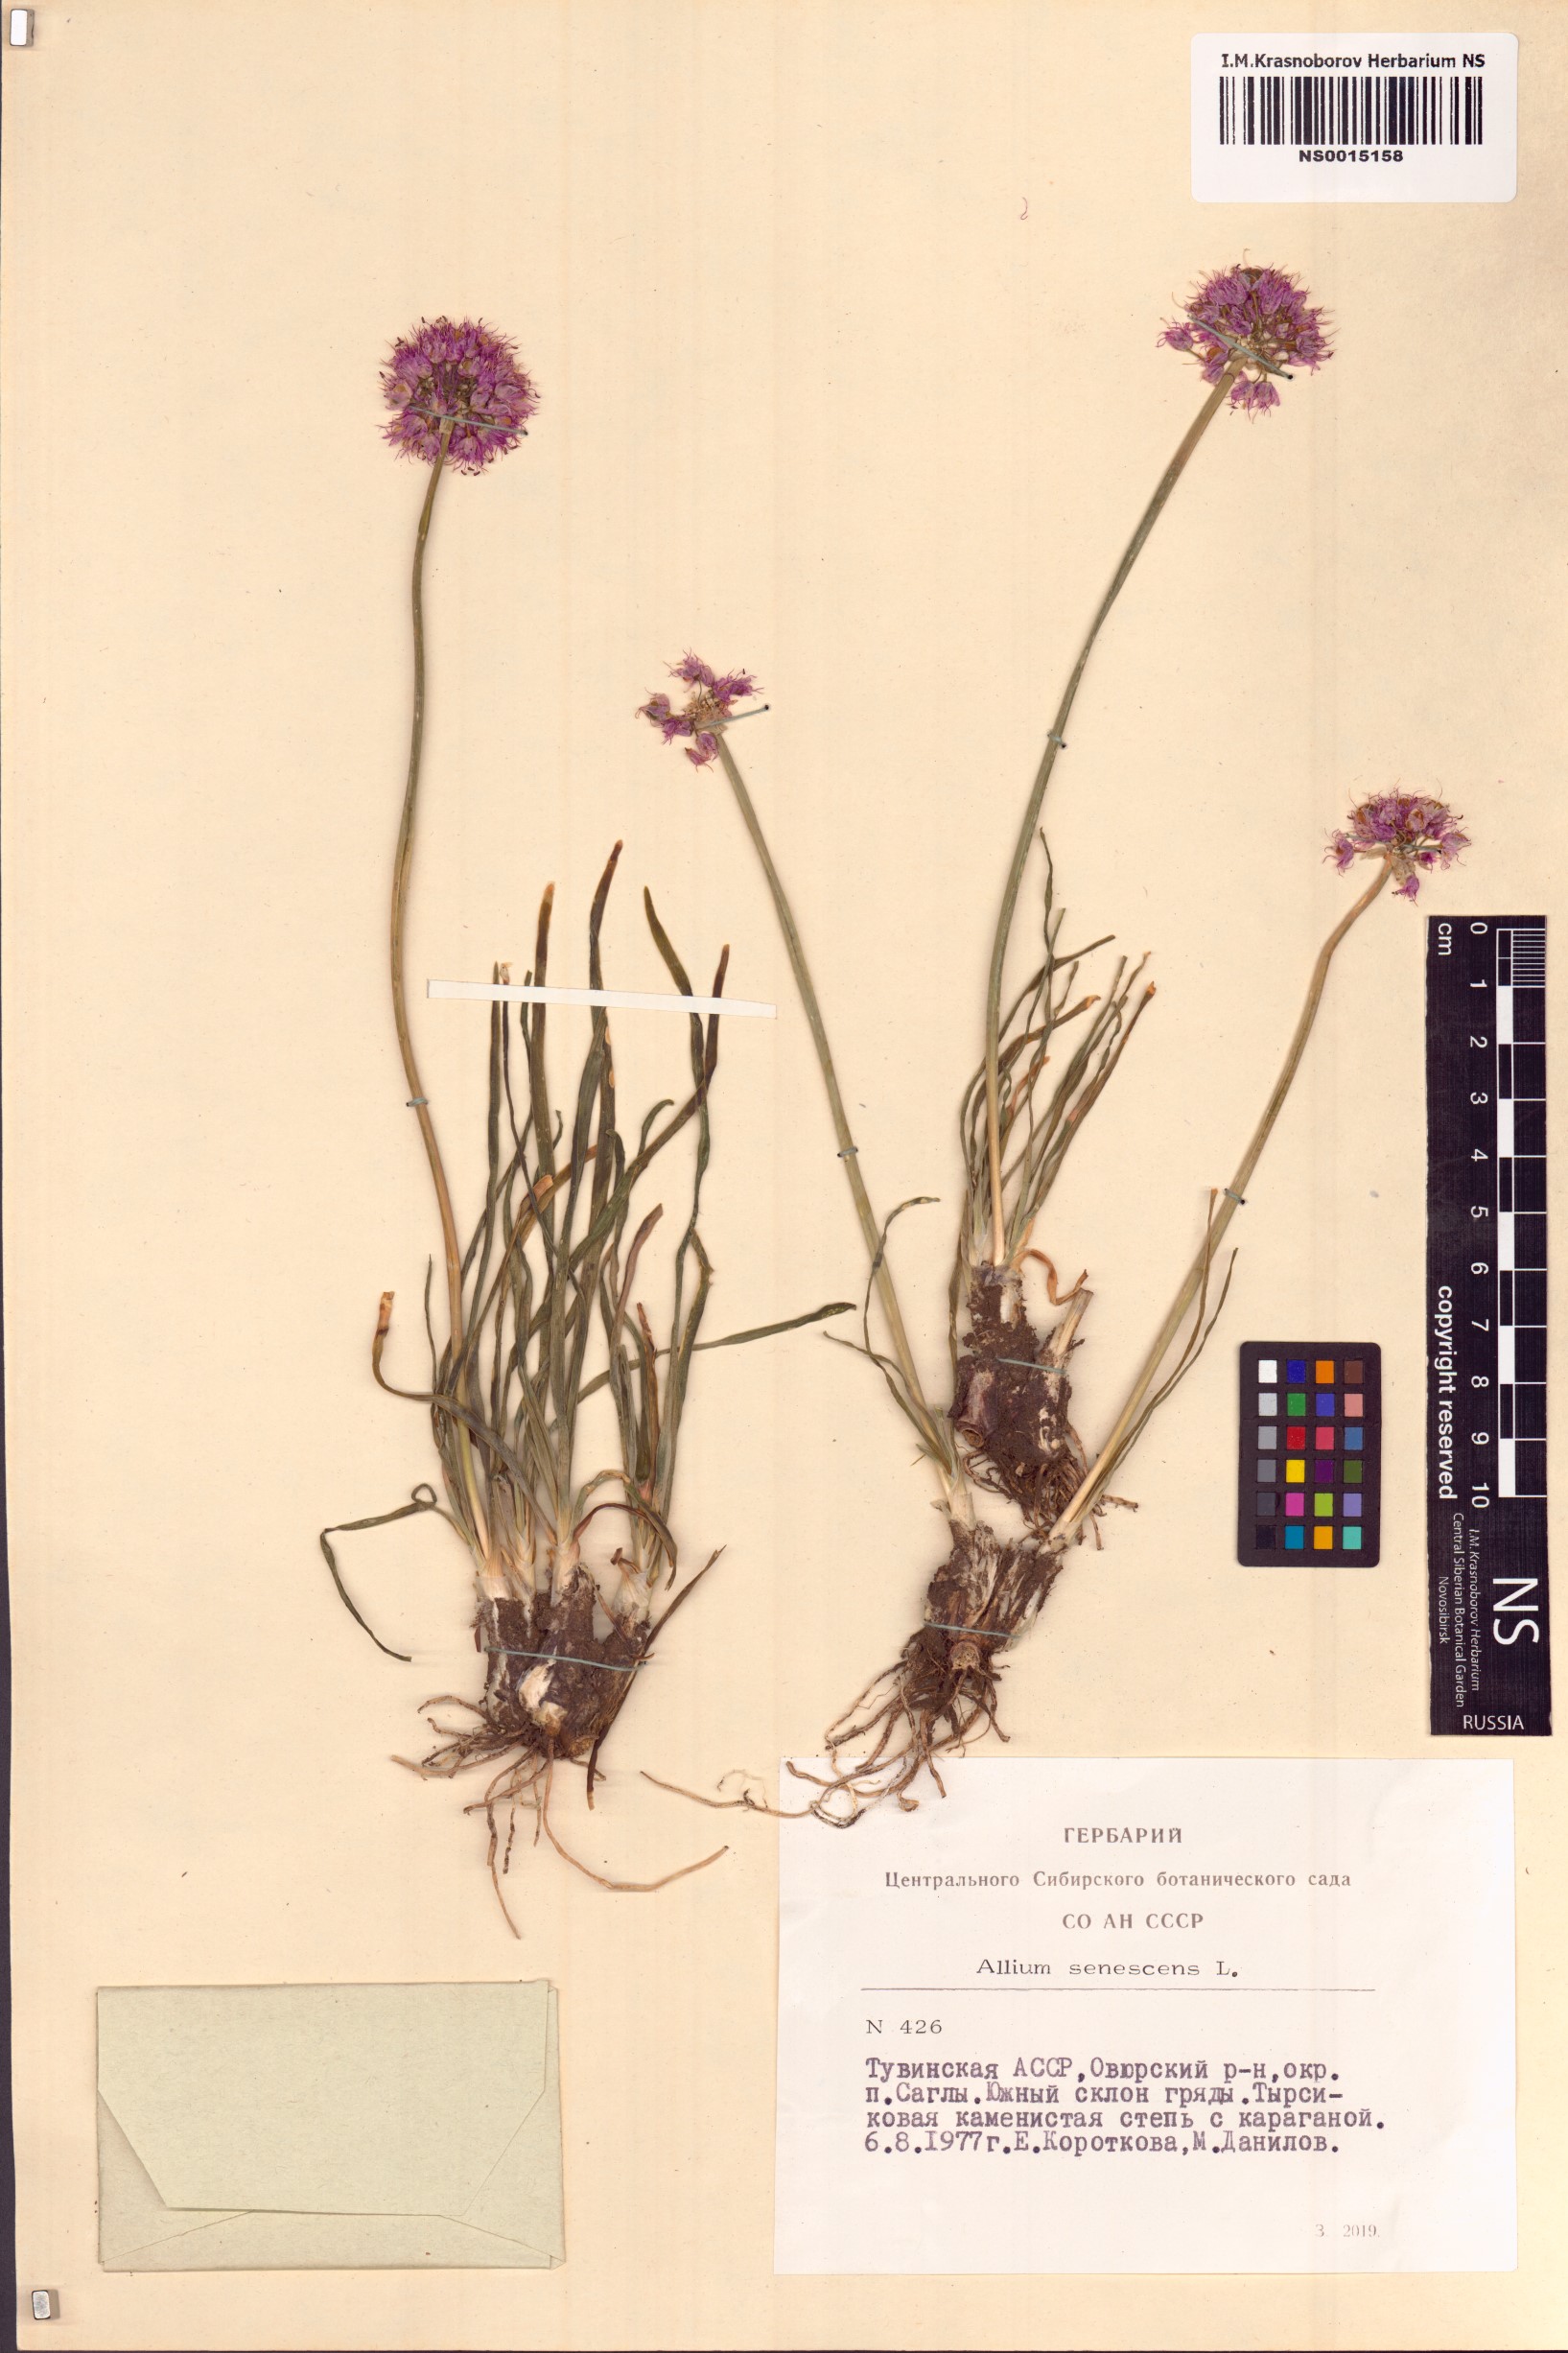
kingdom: Plantae
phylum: Tracheophyta
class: Liliopsida
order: Asparagales
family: Amaryllidaceae
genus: Allium
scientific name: Allium senescens
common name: German garlic
